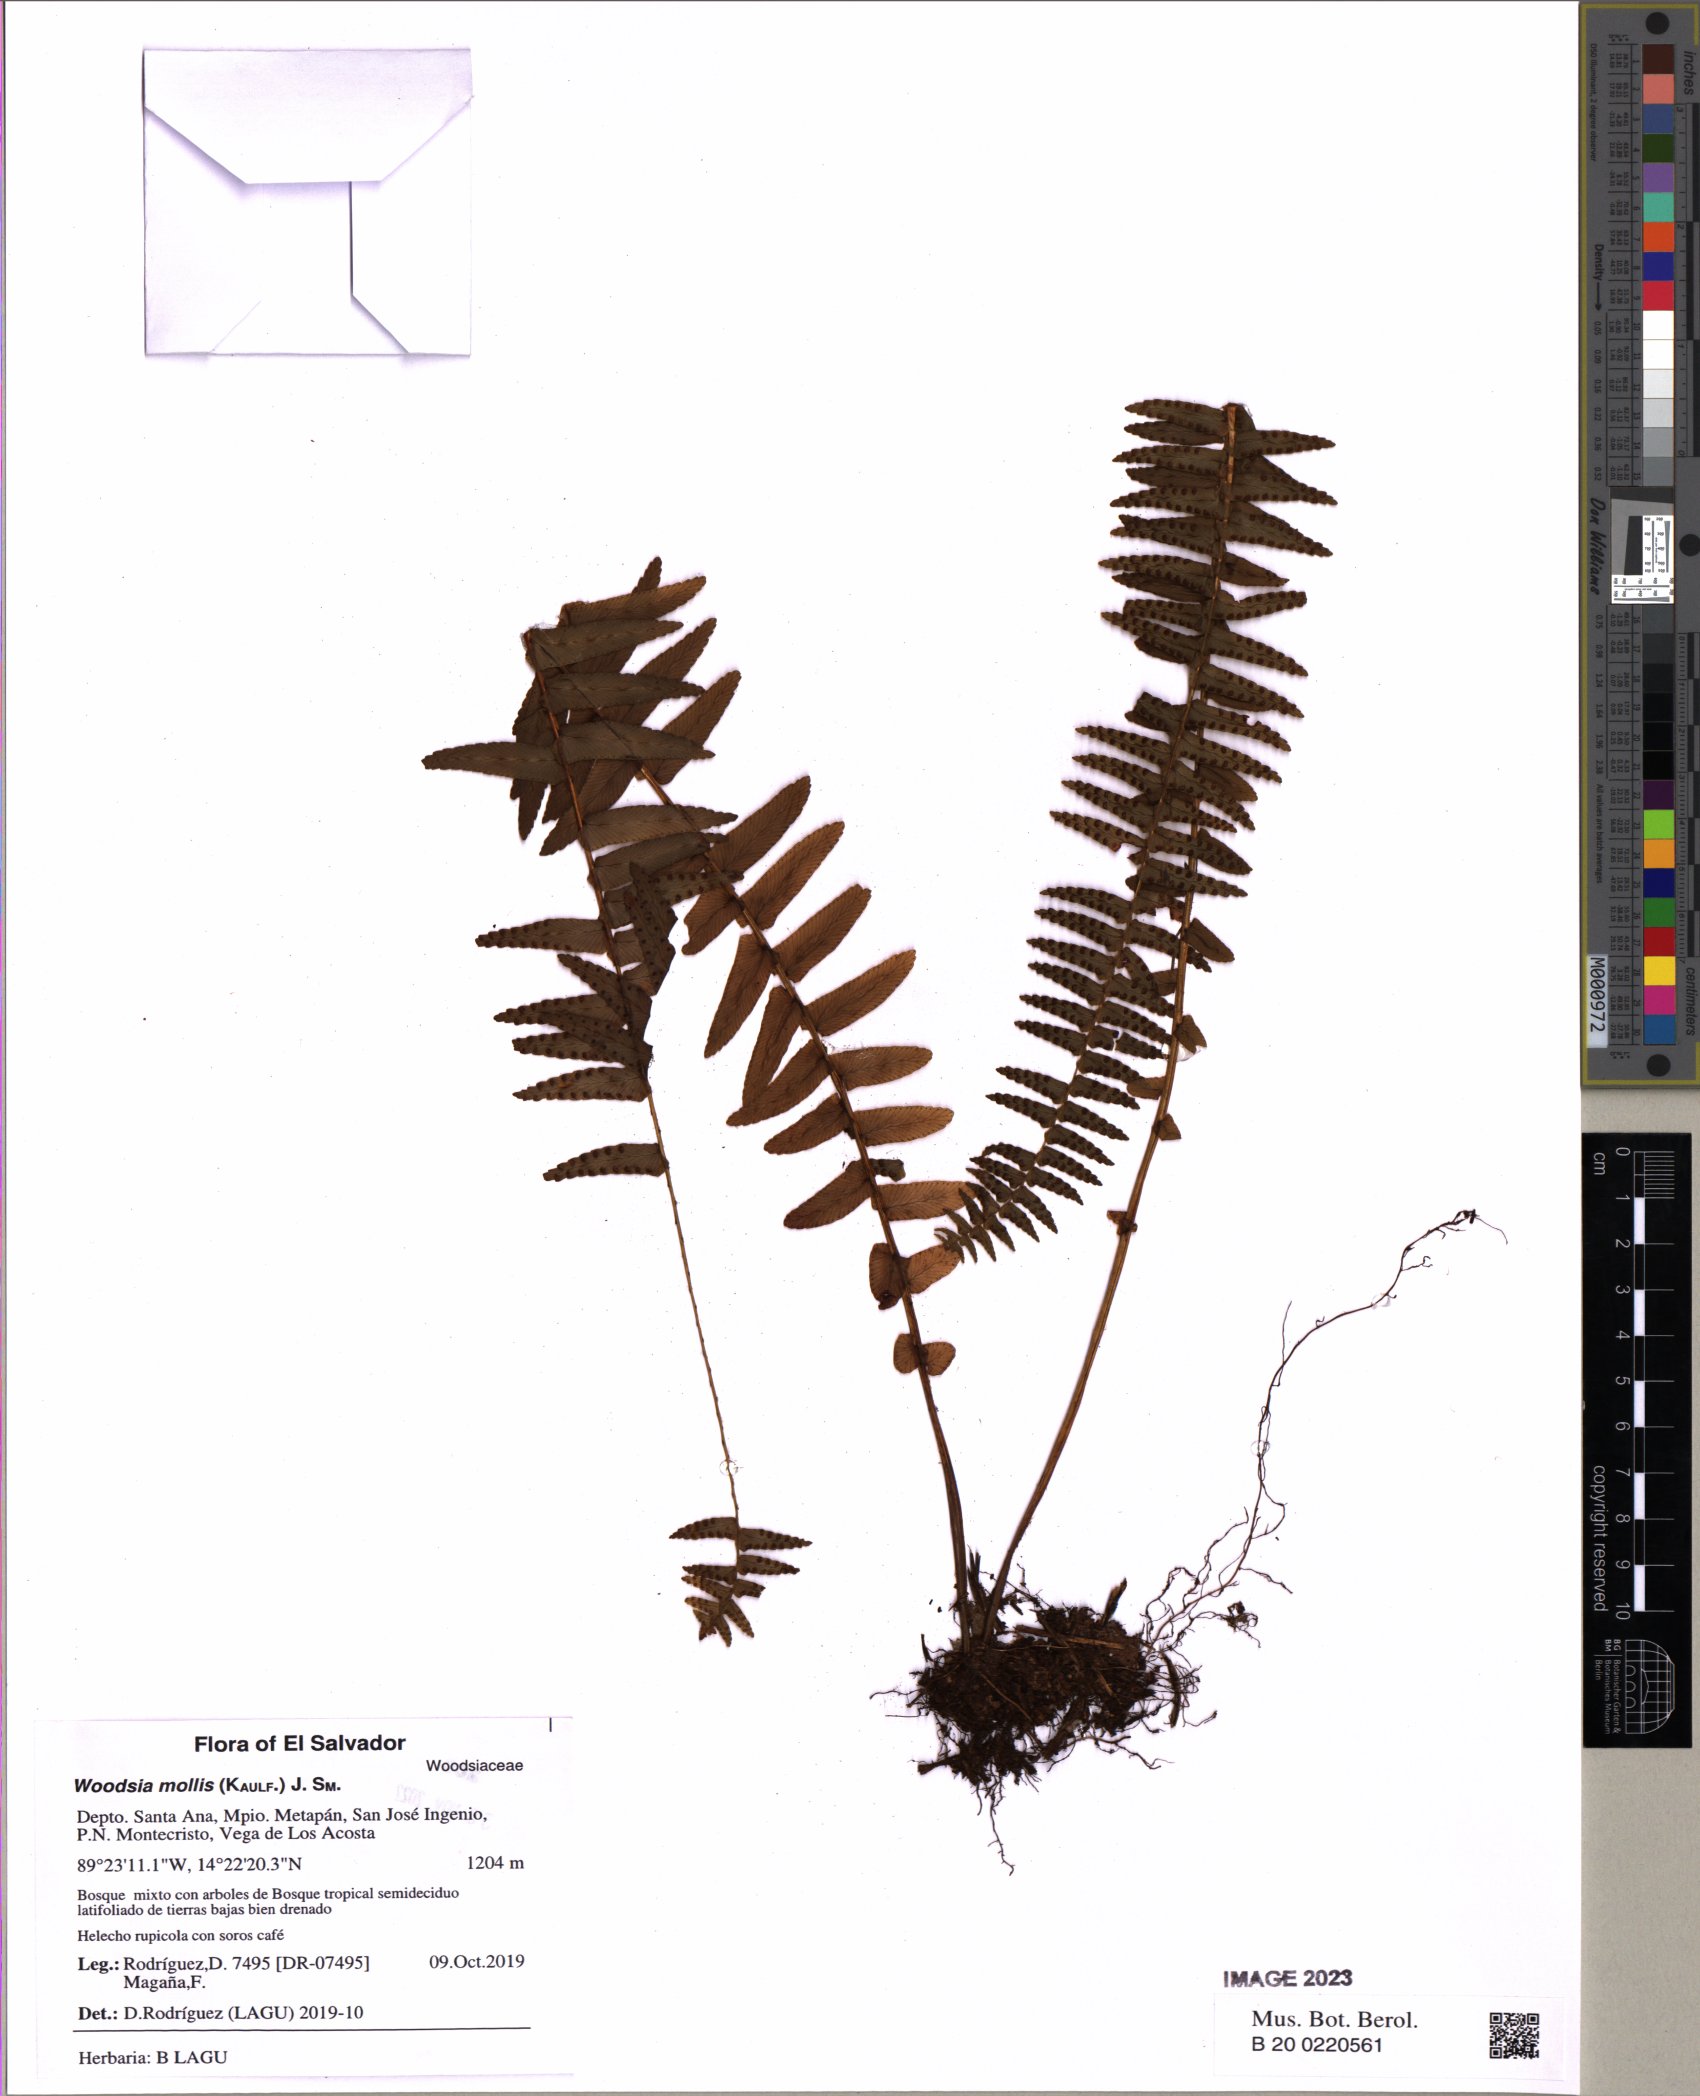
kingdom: Plantae
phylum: Tracheophyta
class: Polypodiopsida
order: Polypodiales
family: Woodsiaceae
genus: Physematium
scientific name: Physematium molle
